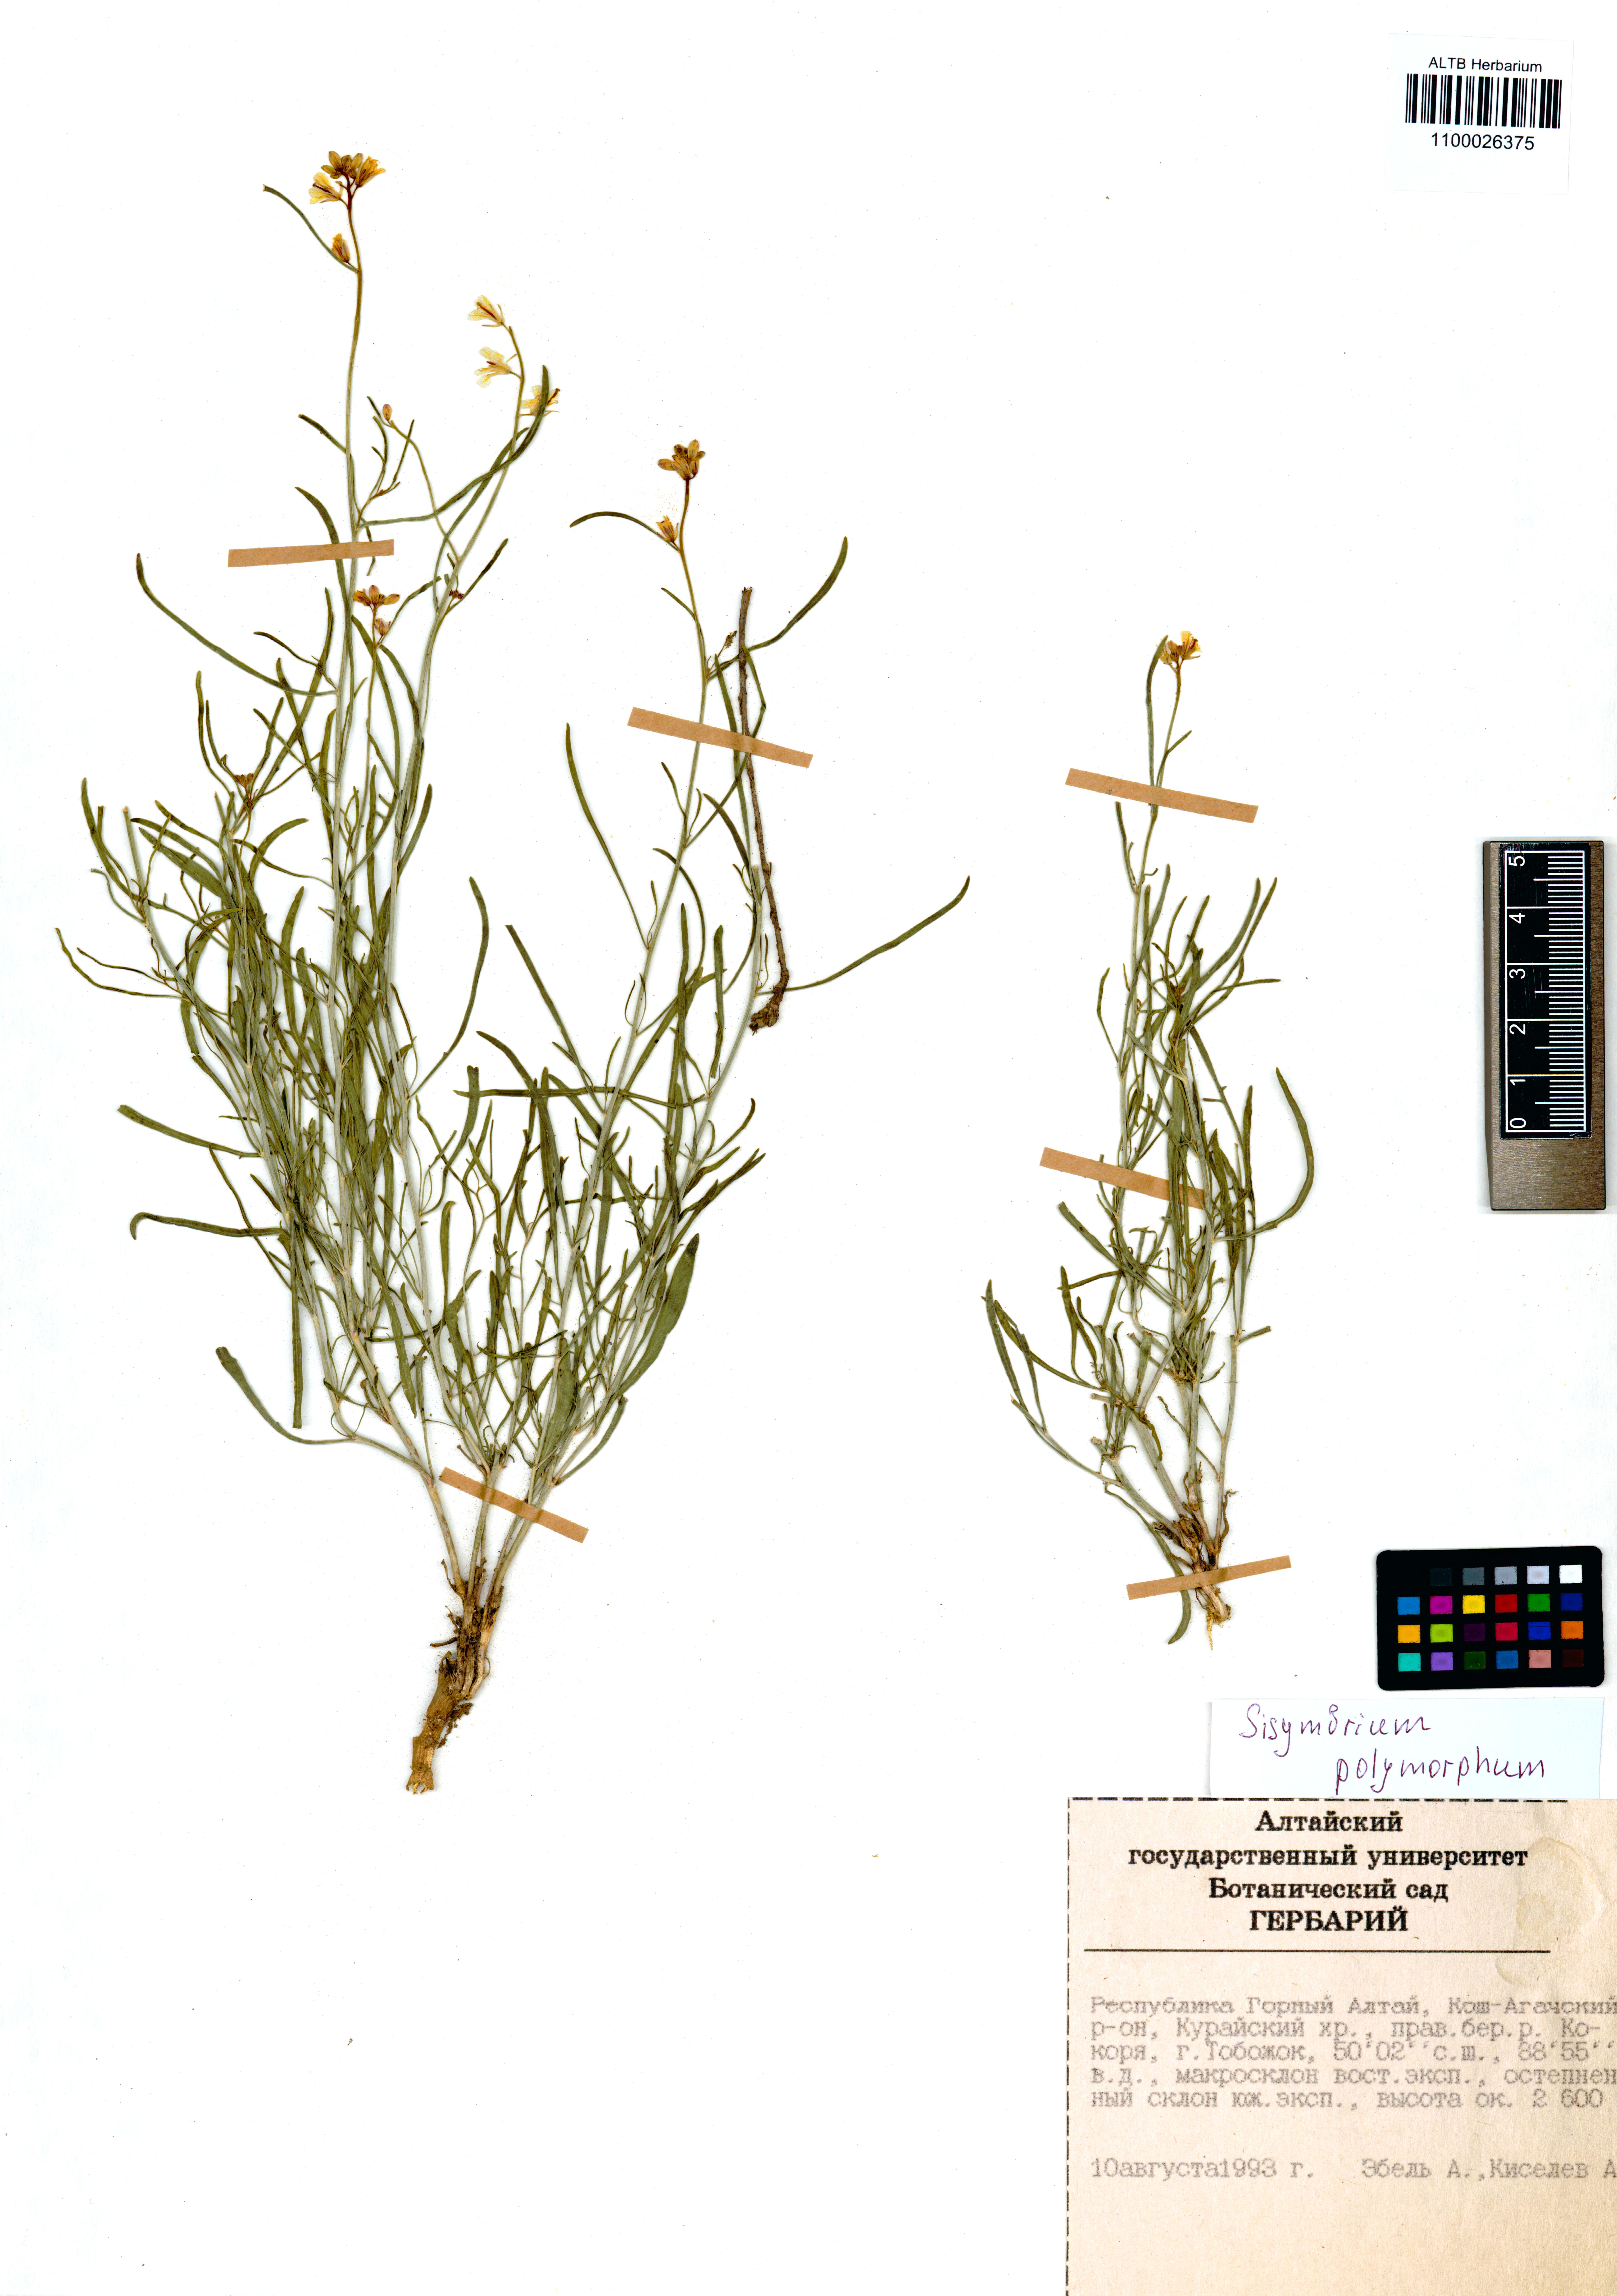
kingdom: Plantae
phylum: Tracheophyta
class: Magnoliopsida
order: Brassicales
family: Brassicaceae
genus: Sisymbrium
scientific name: Sisymbrium polymorphum
